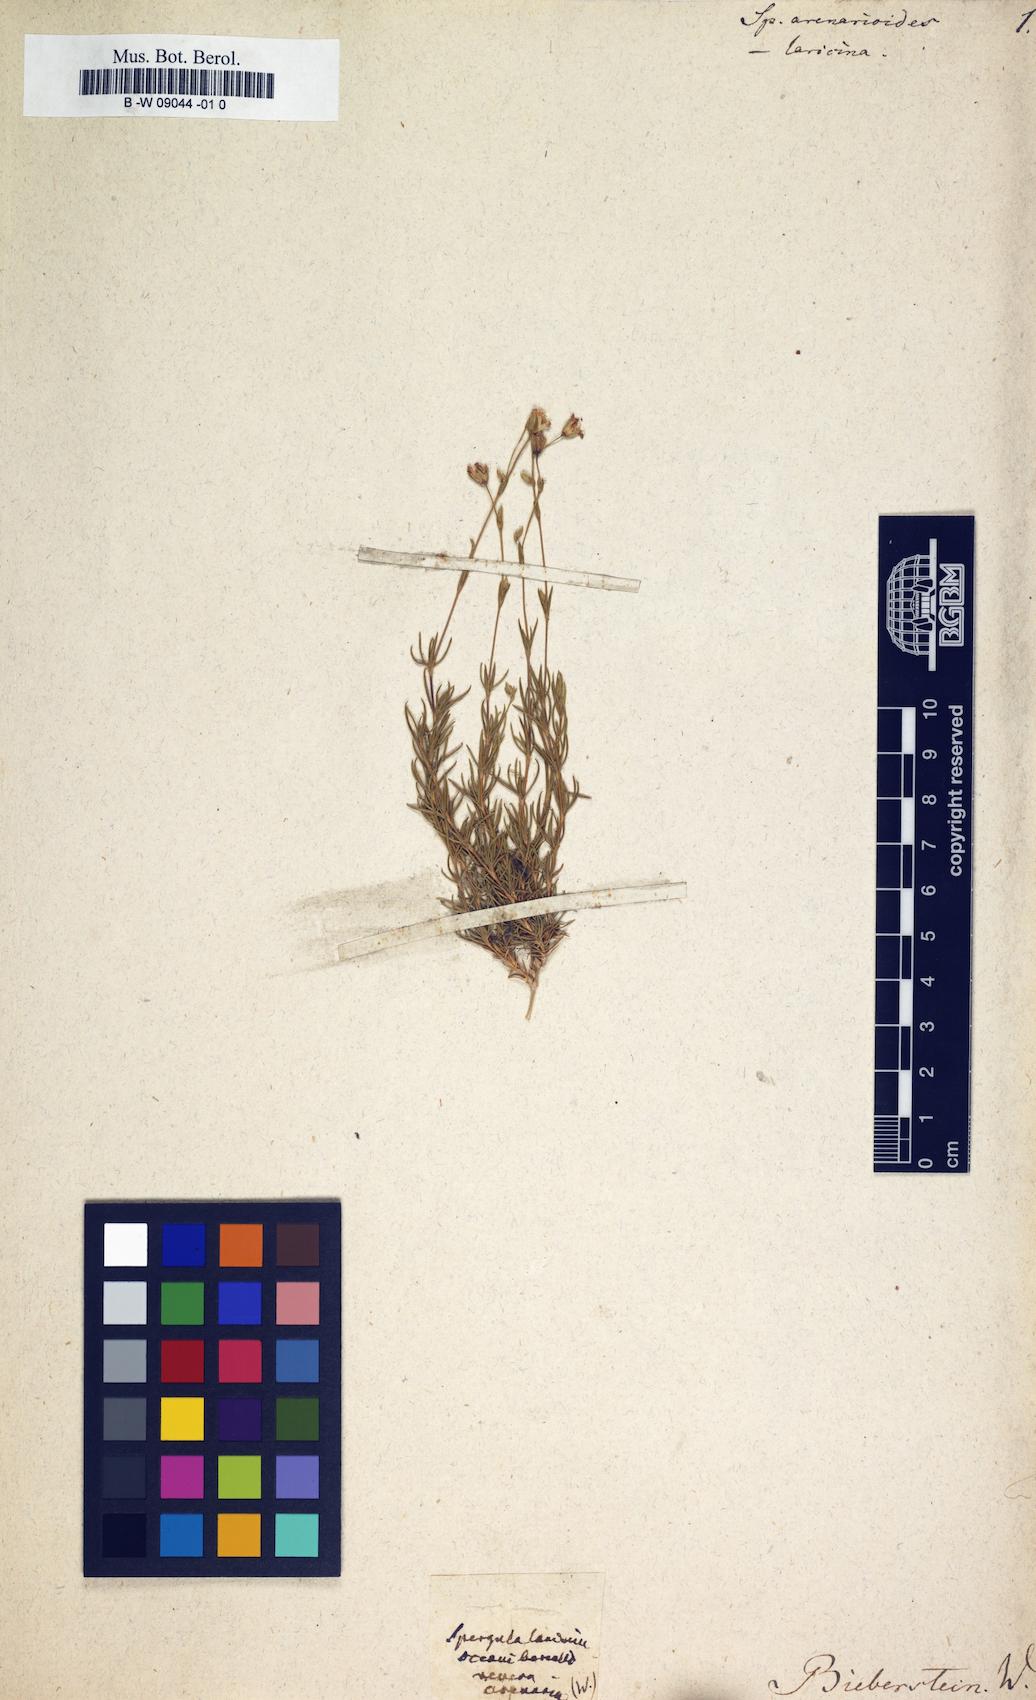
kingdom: Plantae
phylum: Tracheophyta
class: Magnoliopsida
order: Caryophyllales
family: Caryophyllaceae
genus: Spergula
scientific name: Spergula arenarioides
